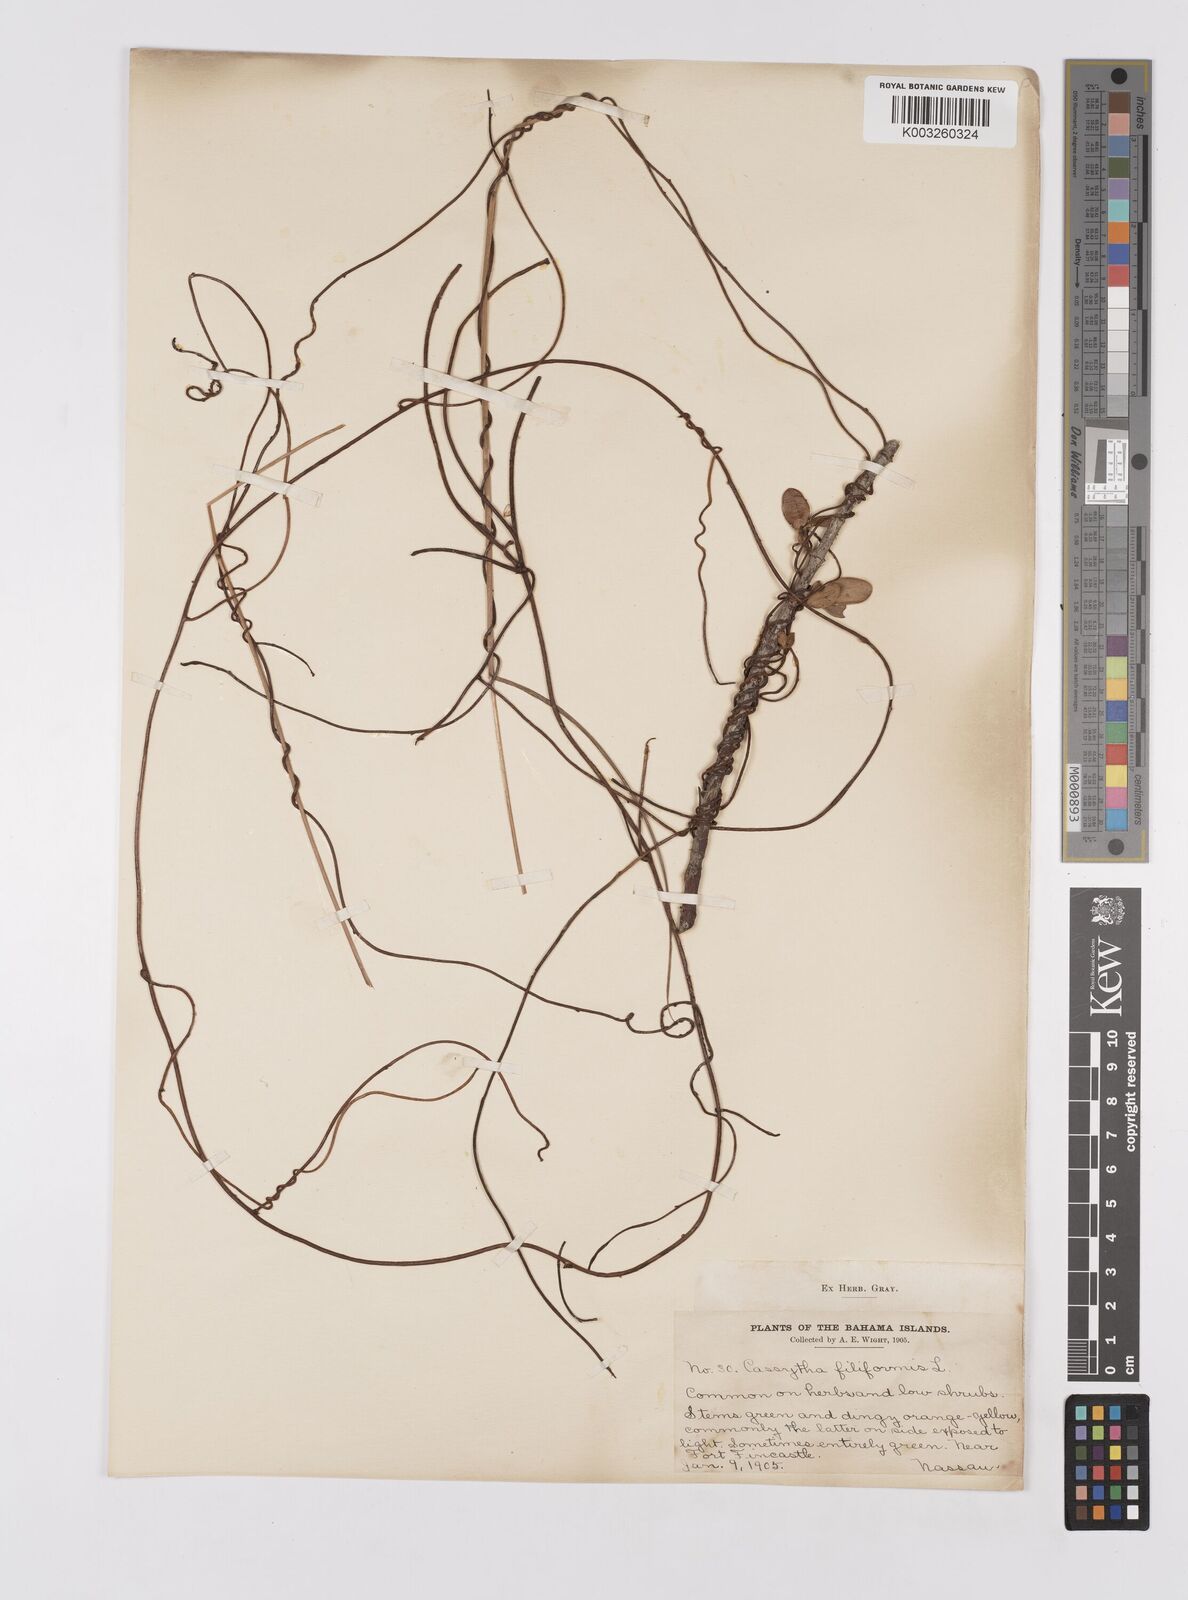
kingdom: Plantae
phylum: Tracheophyta
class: Magnoliopsida
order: Laurales
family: Lauraceae
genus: Cassytha
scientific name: Cassytha filiformis
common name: Dodder-laurel
